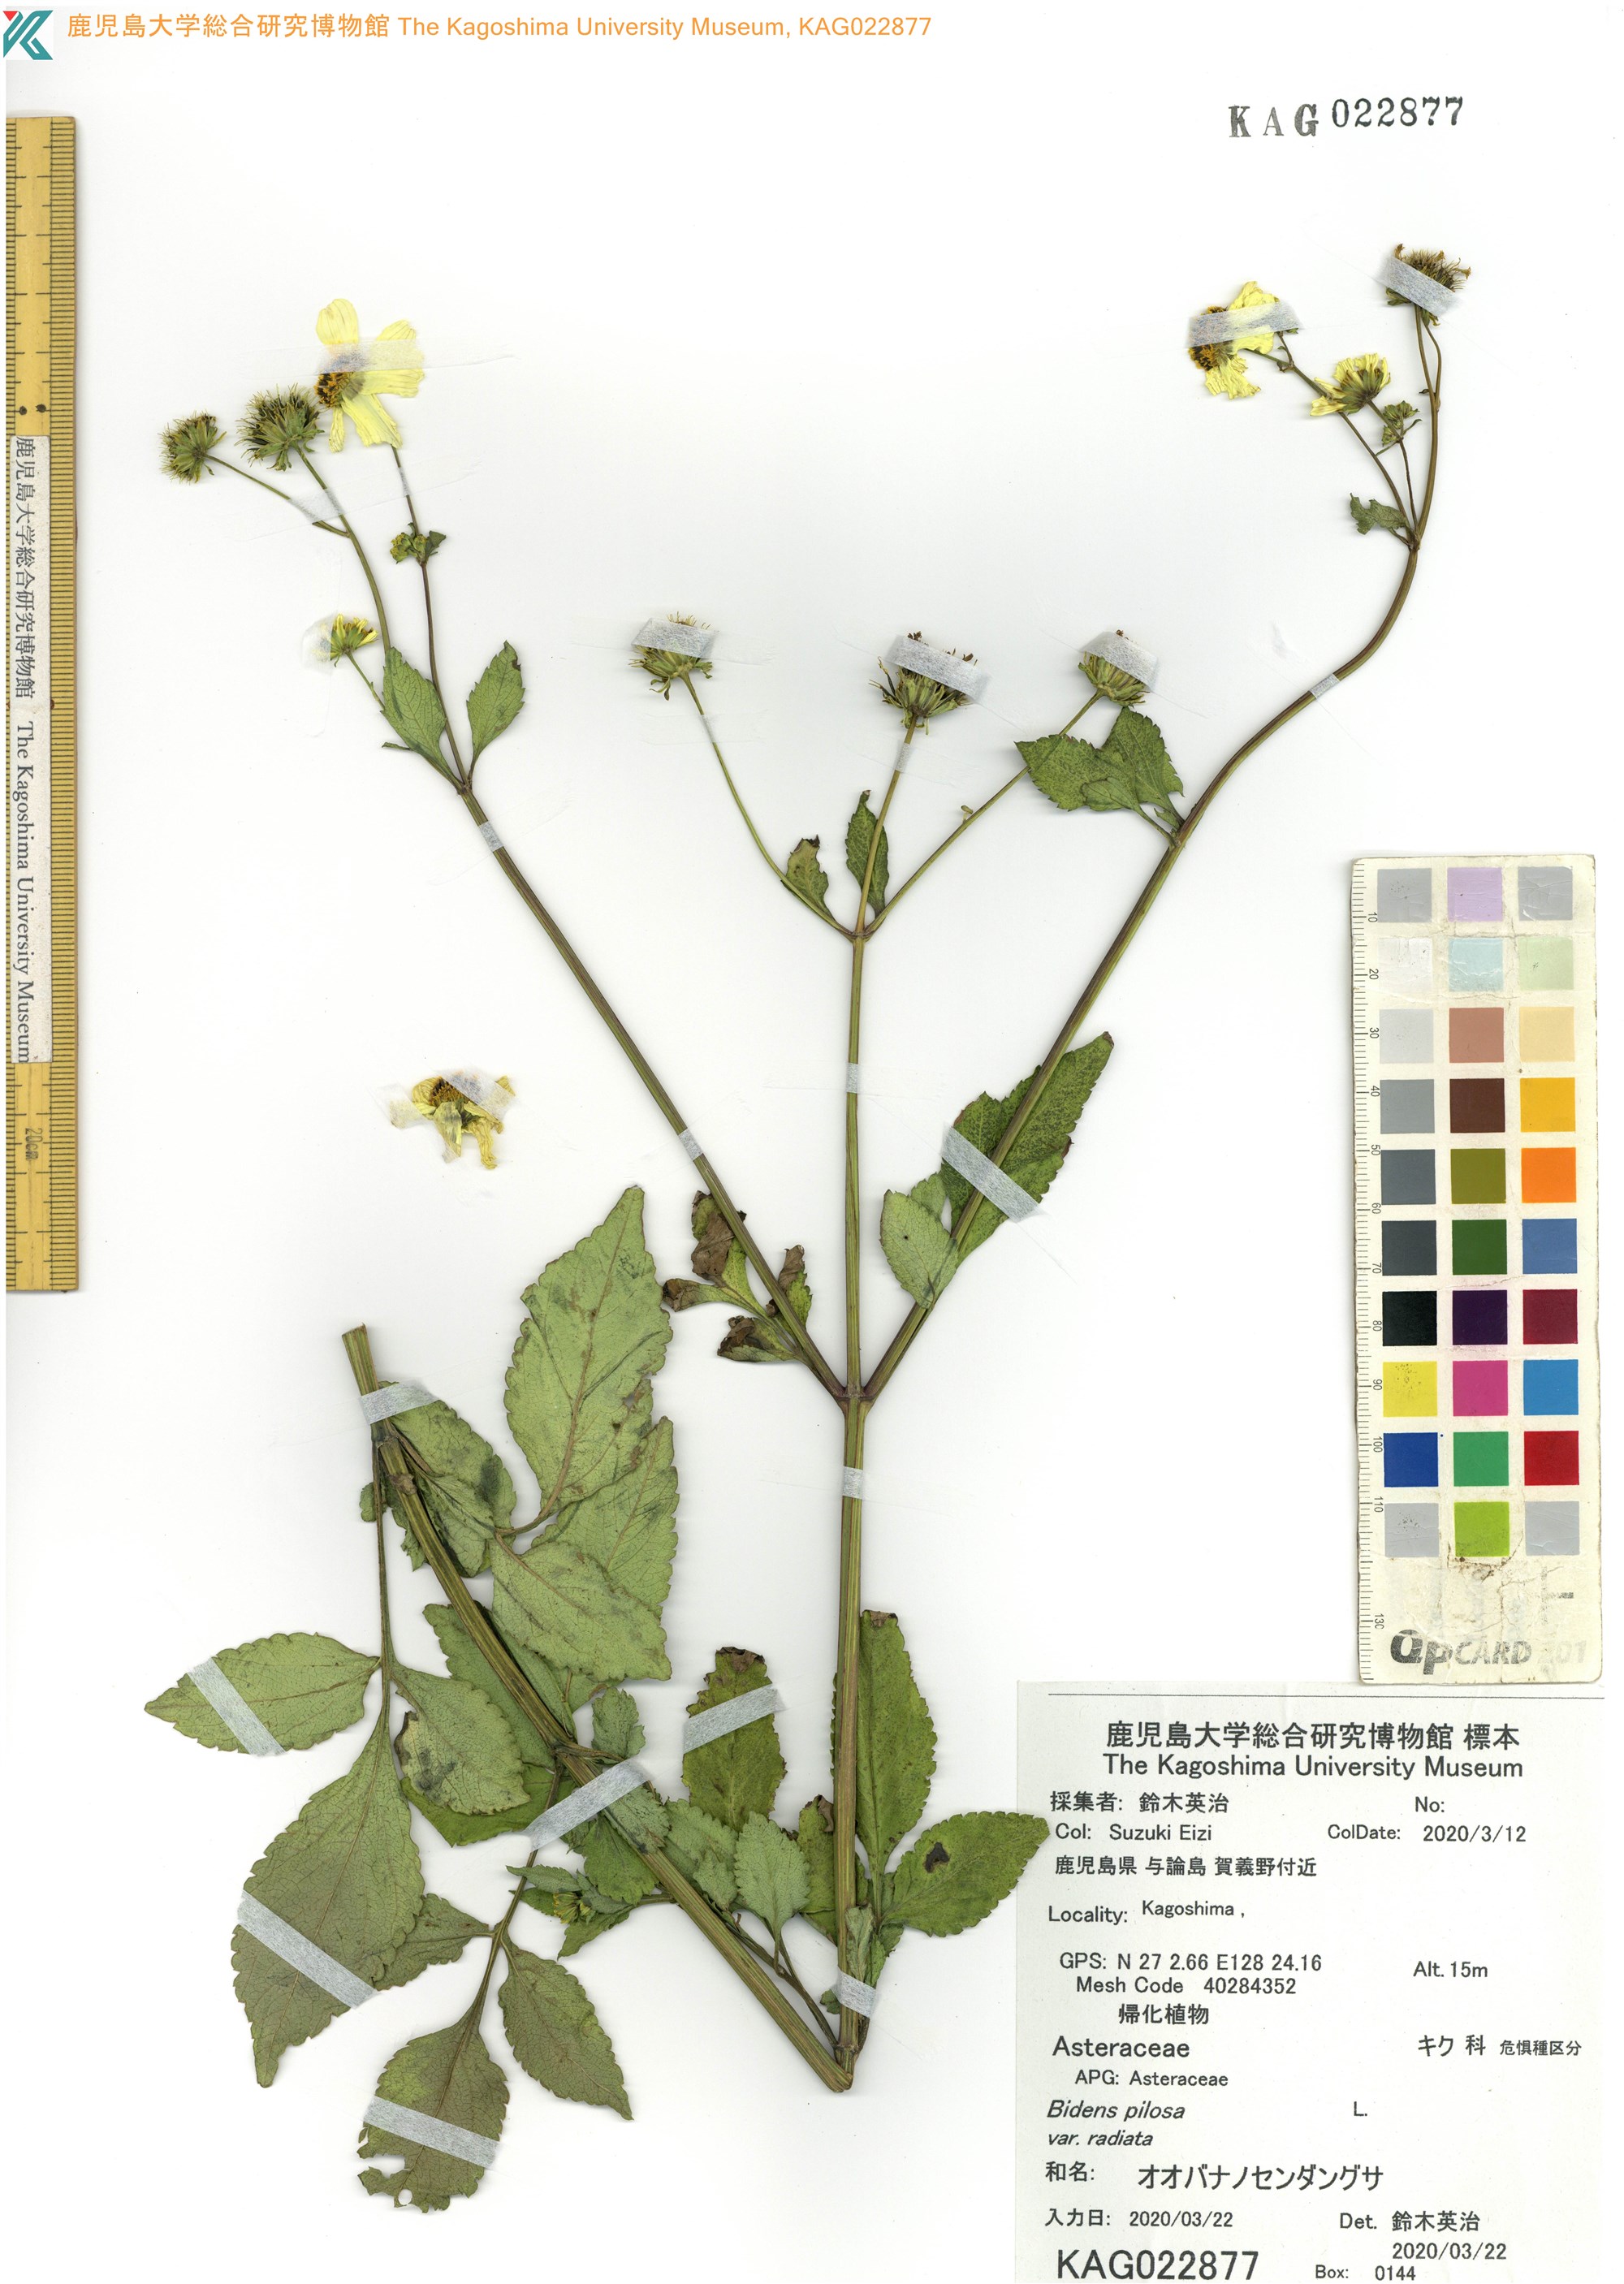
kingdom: Plantae
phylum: Tracheophyta
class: Magnoliopsida
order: Asterales
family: Asteraceae
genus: Bidens
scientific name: Bidens pilosa
